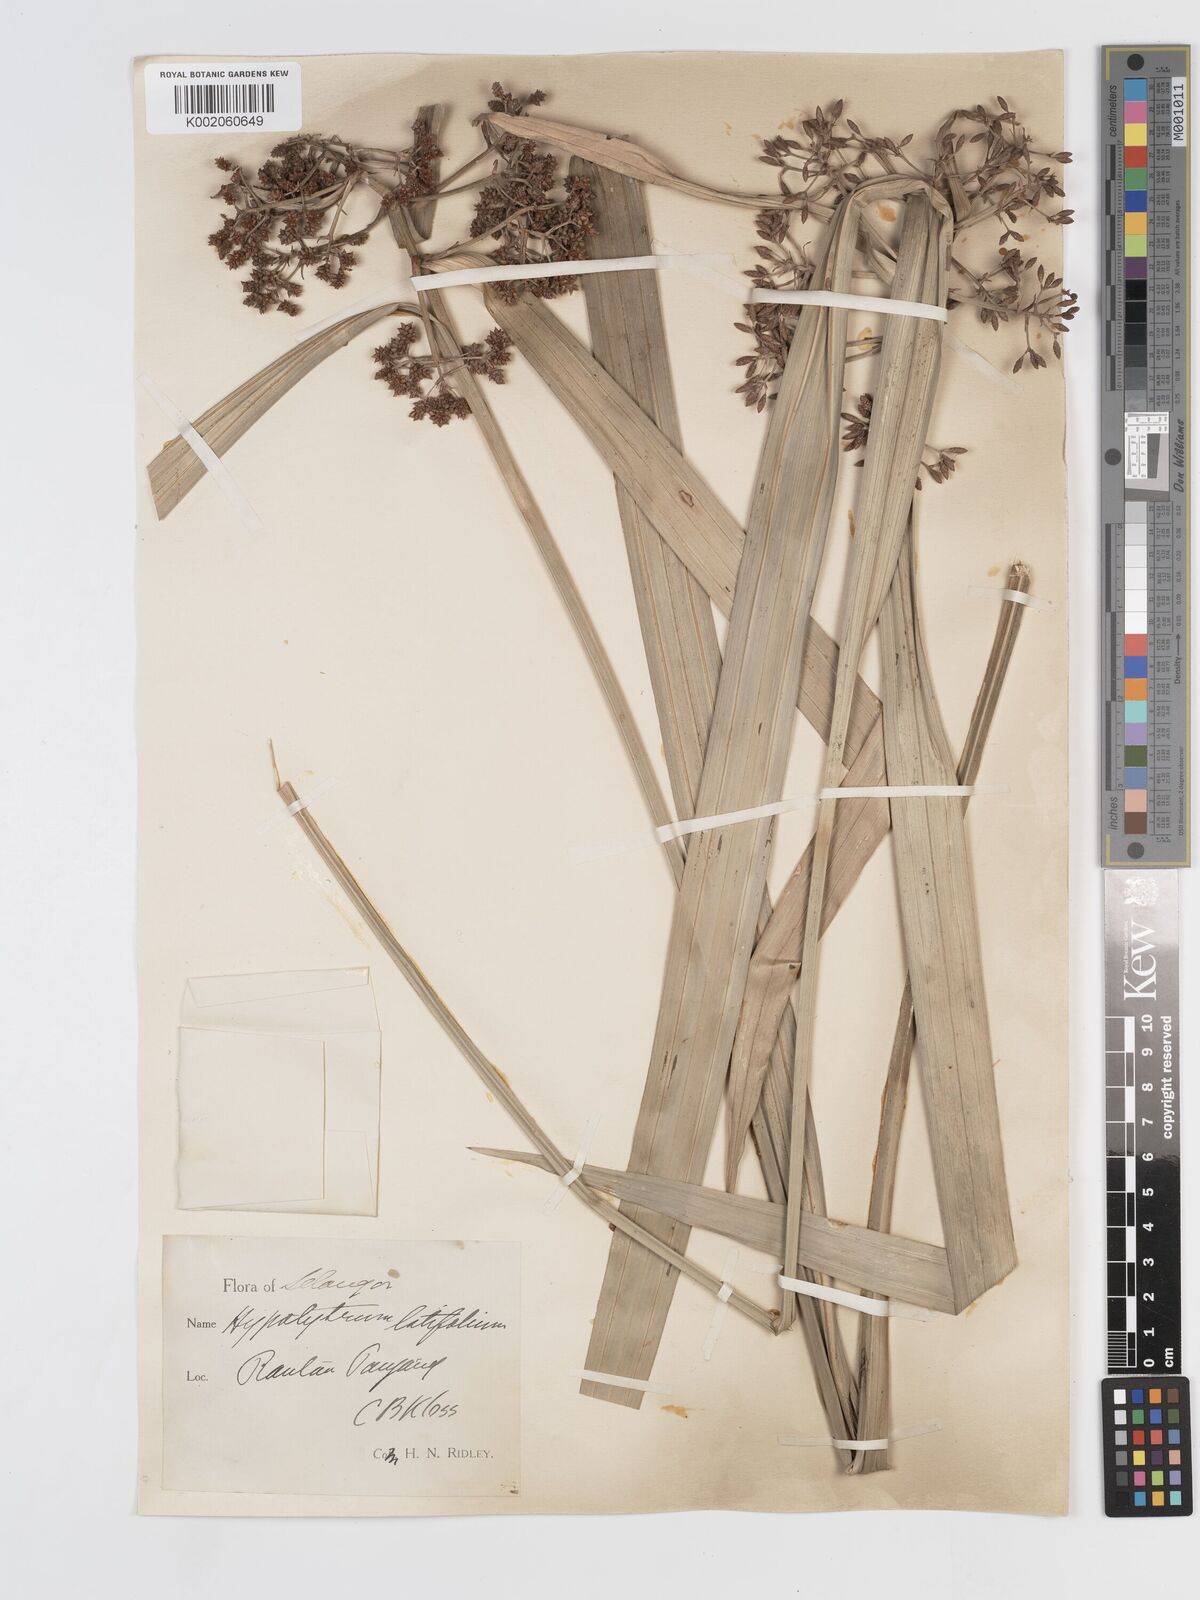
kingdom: Plantae
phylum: Tracheophyta
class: Liliopsida
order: Poales
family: Cyperaceae
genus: Hypolytrum
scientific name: Hypolytrum nemorum
